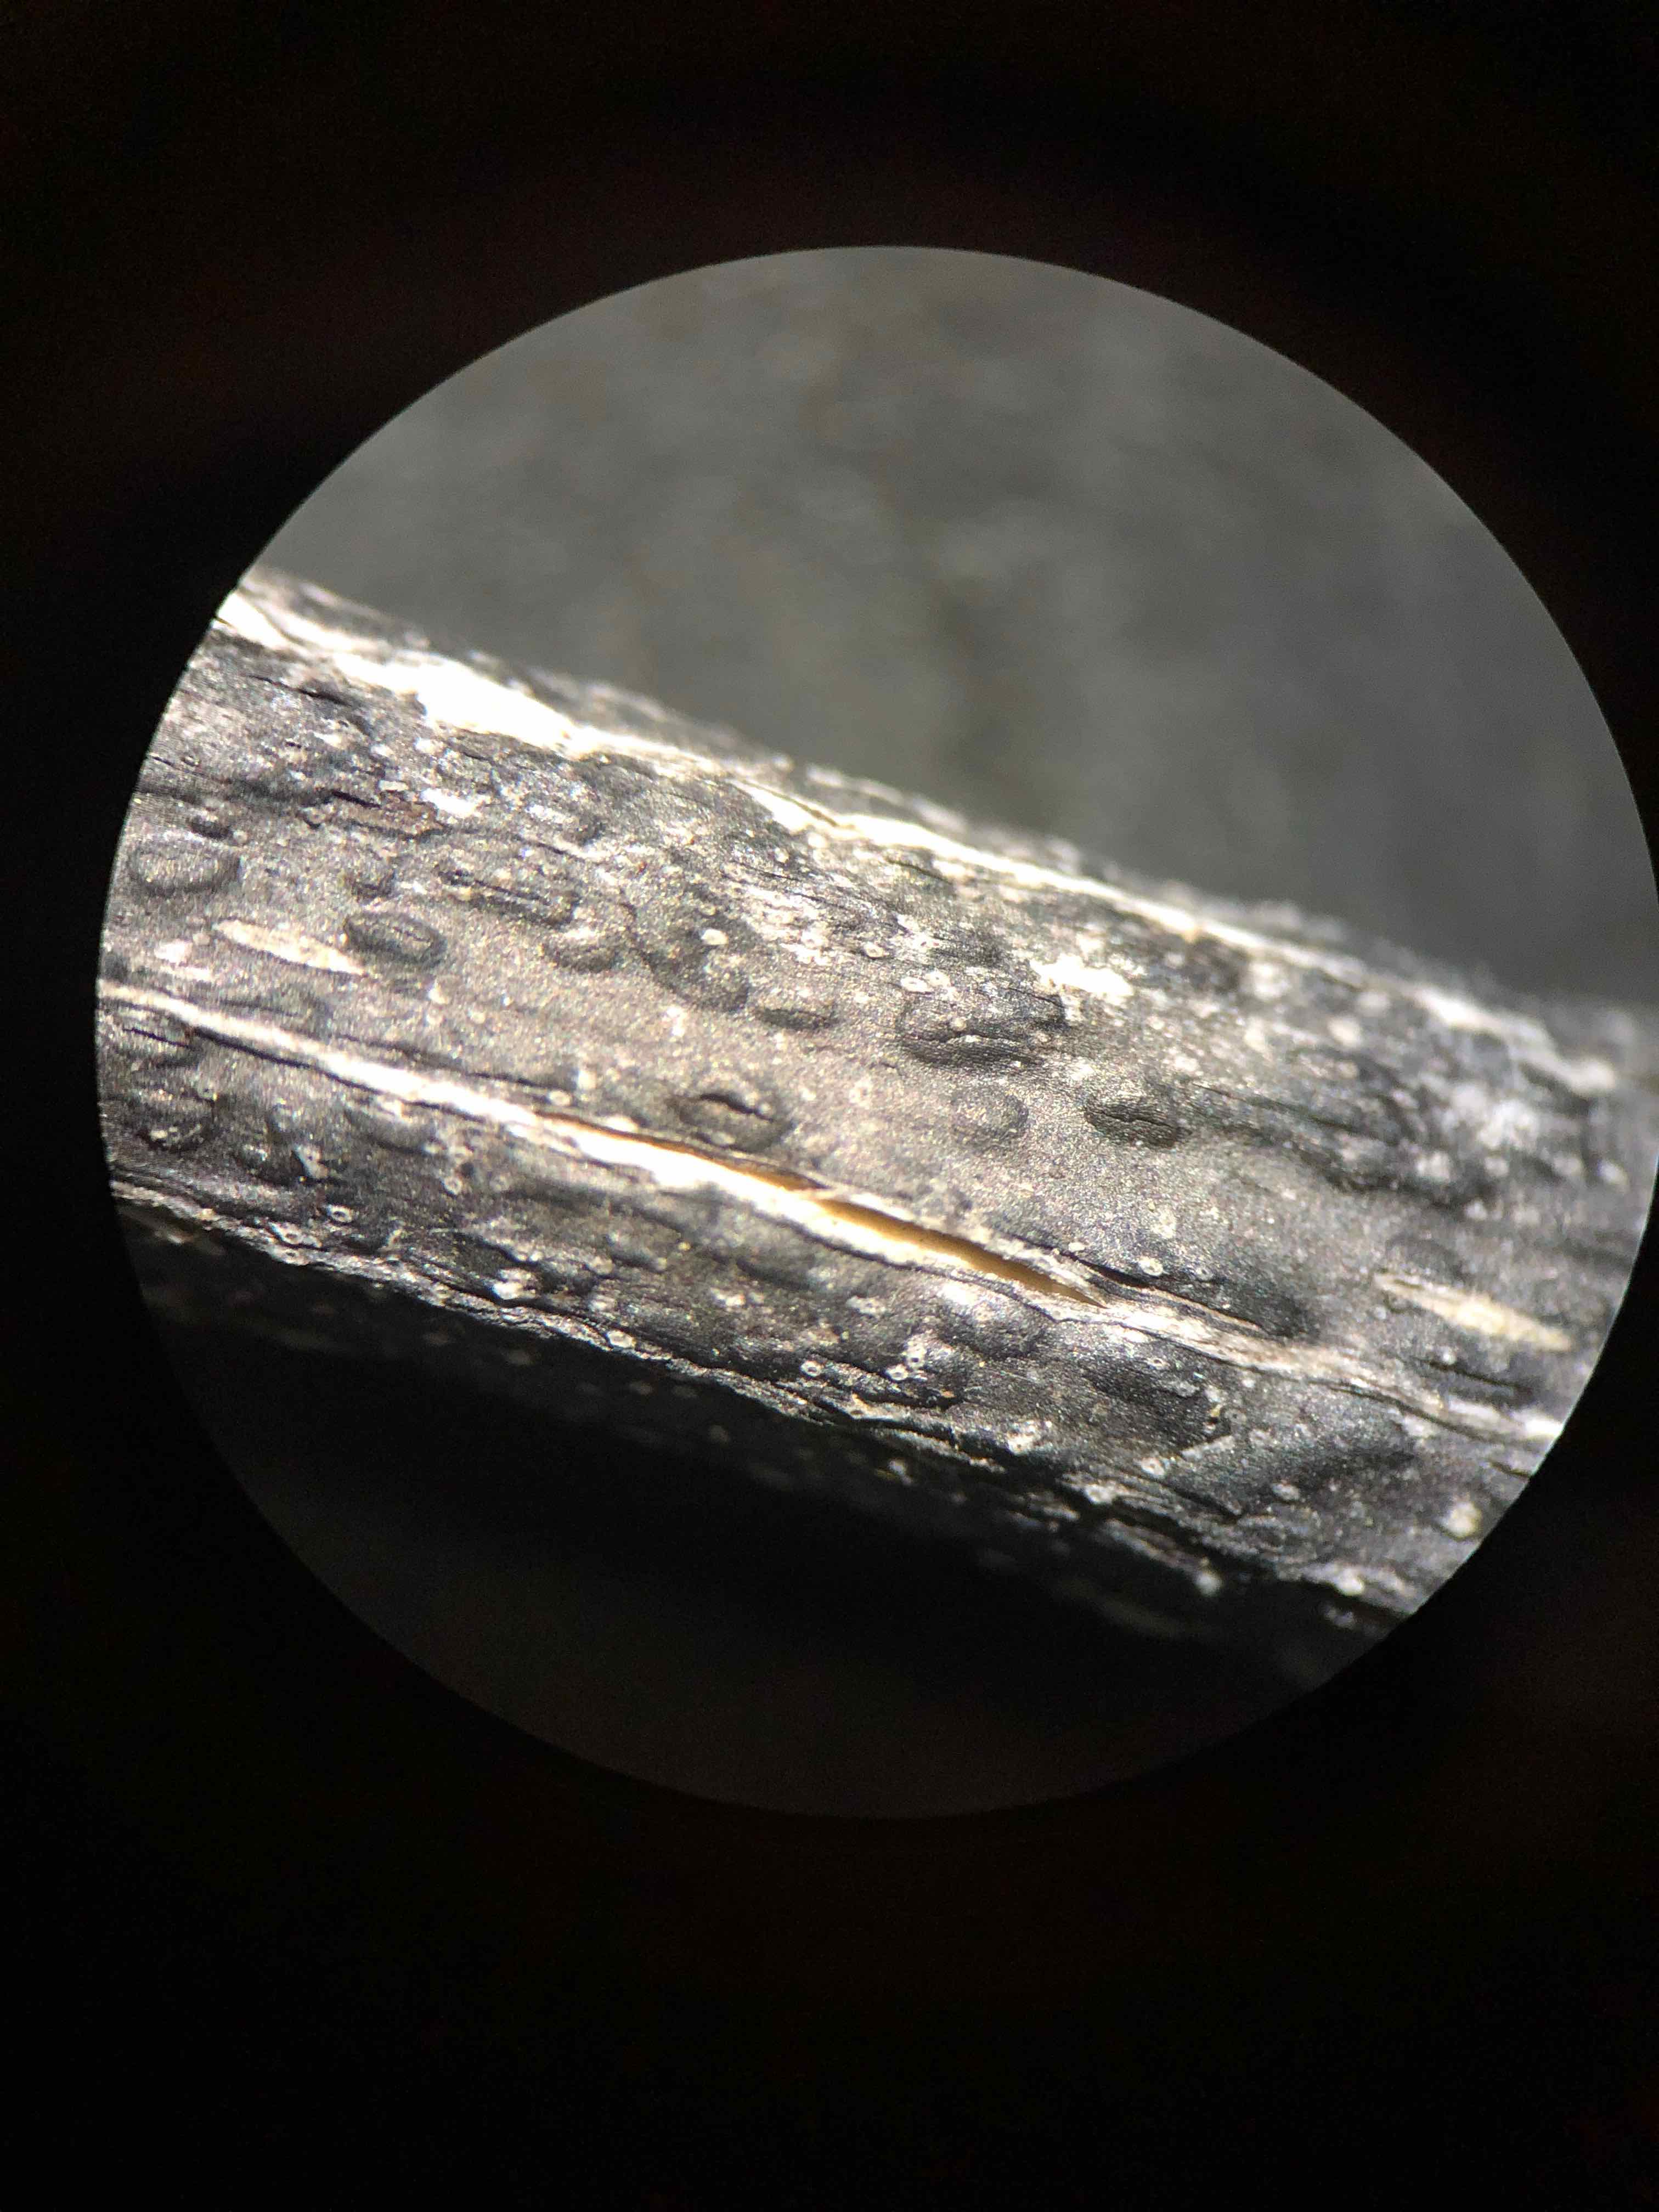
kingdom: Fungi
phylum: Ascomycota
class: Sordariomycetes
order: Diaporthales
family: Diaporthaceae
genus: Diaporthopsis
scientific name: Diaporthopsis urticae
